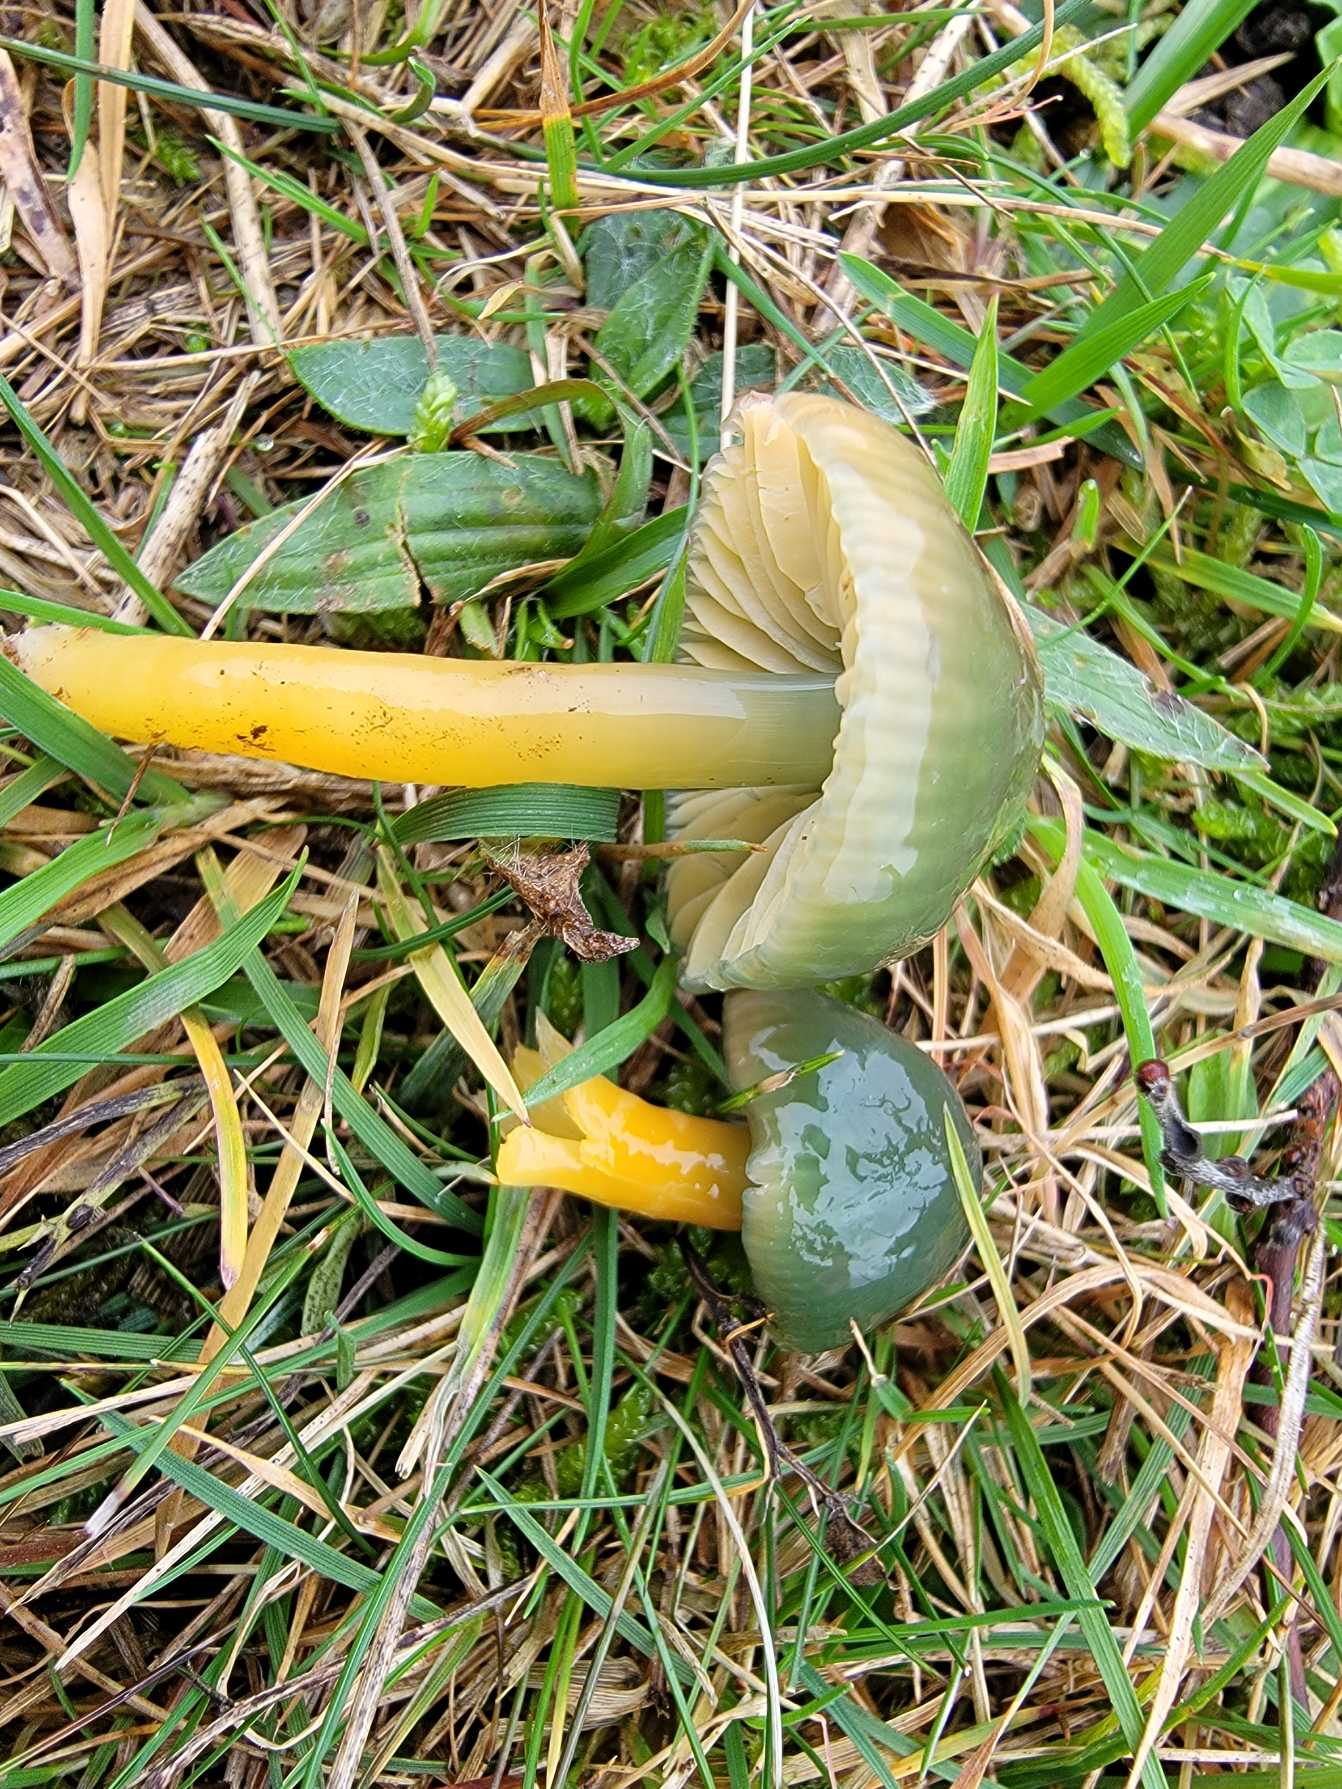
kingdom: Fungi
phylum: Basidiomycota
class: Agaricomycetes
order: Agaricales
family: Hygrophoraceae
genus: Gliophorus
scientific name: Gliophorus psittacinus
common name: Papegøje-vokshat
